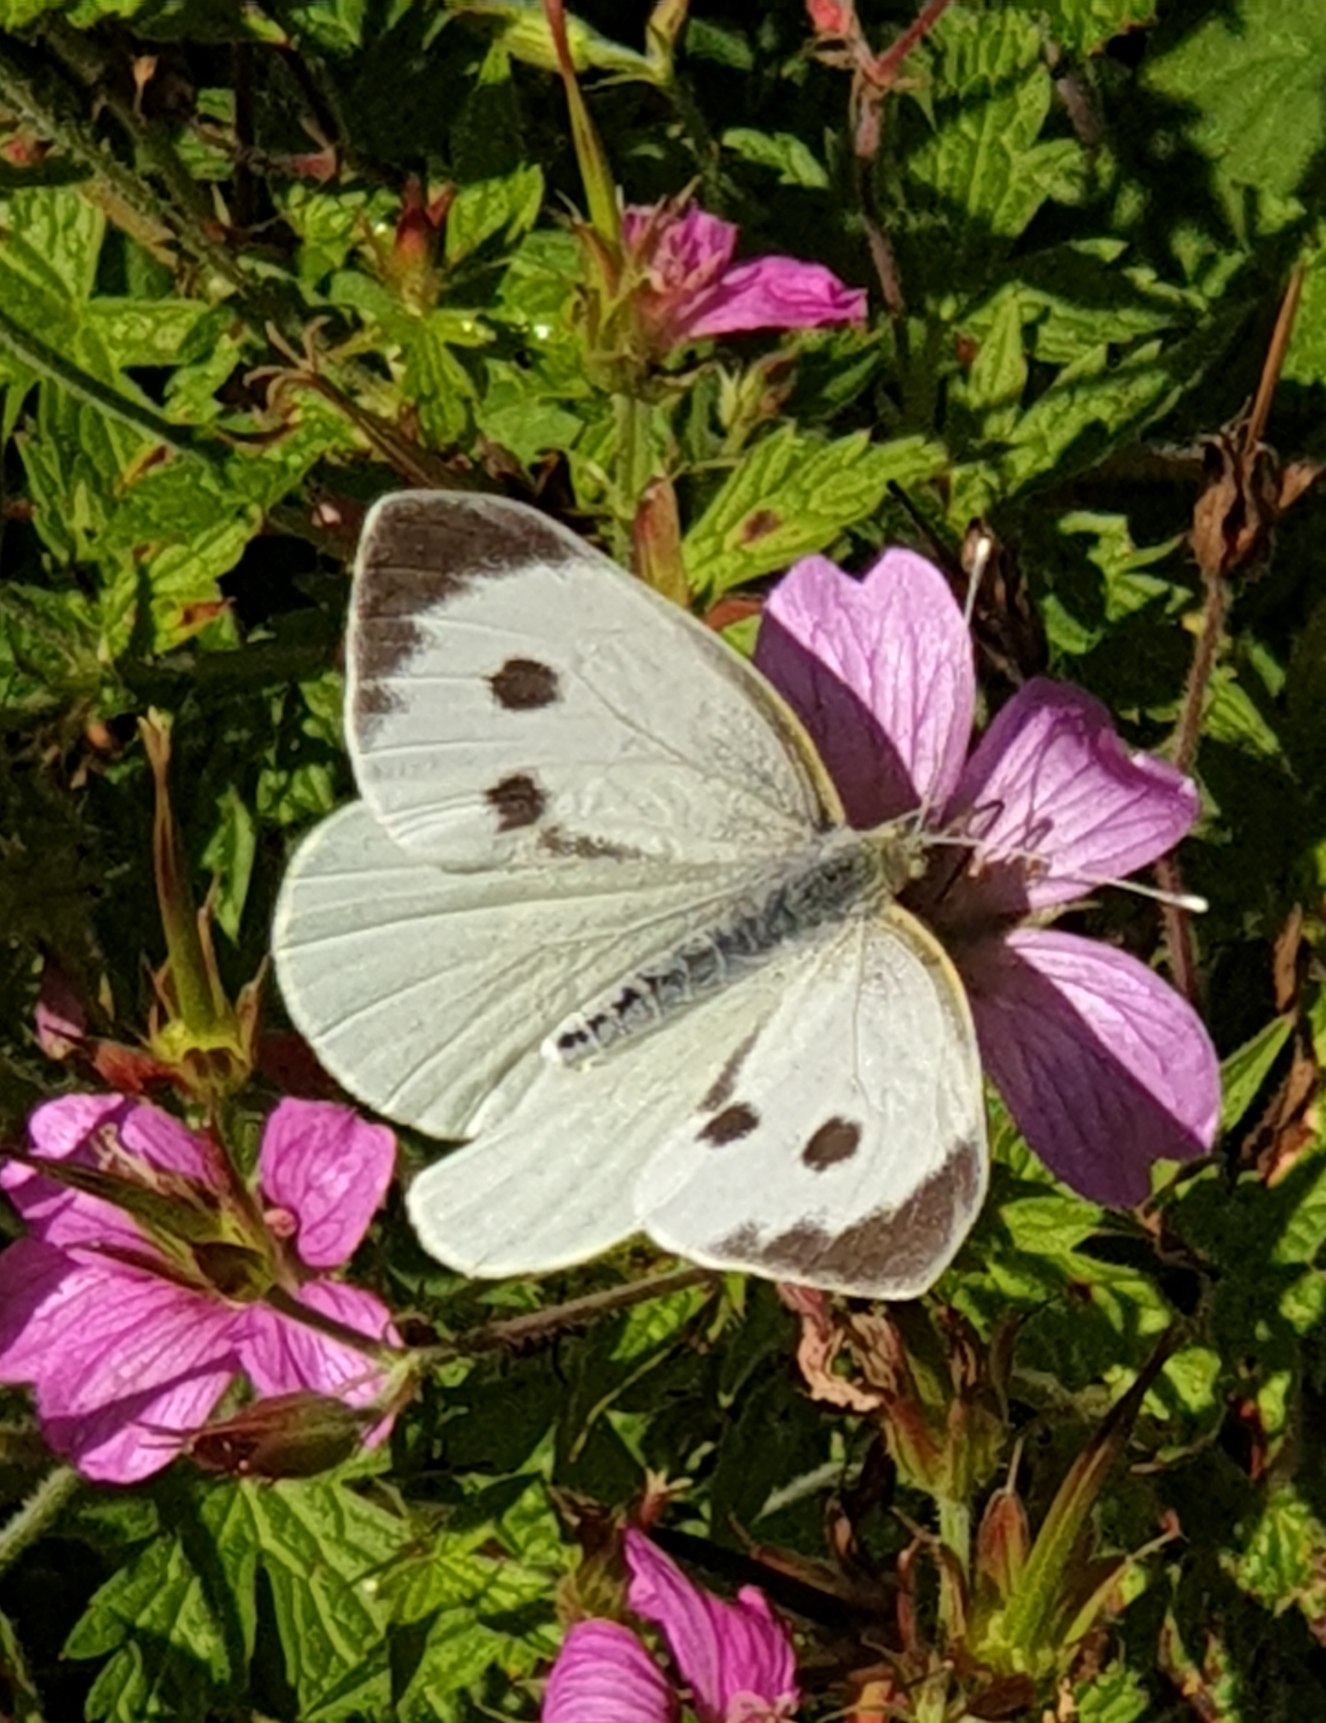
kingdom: Animalia
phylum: Arthropoda
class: Insecta
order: Lepidoptera
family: Pieridae
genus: Pieris
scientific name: Pieris brassicae
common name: Stor kålsommerfugl
